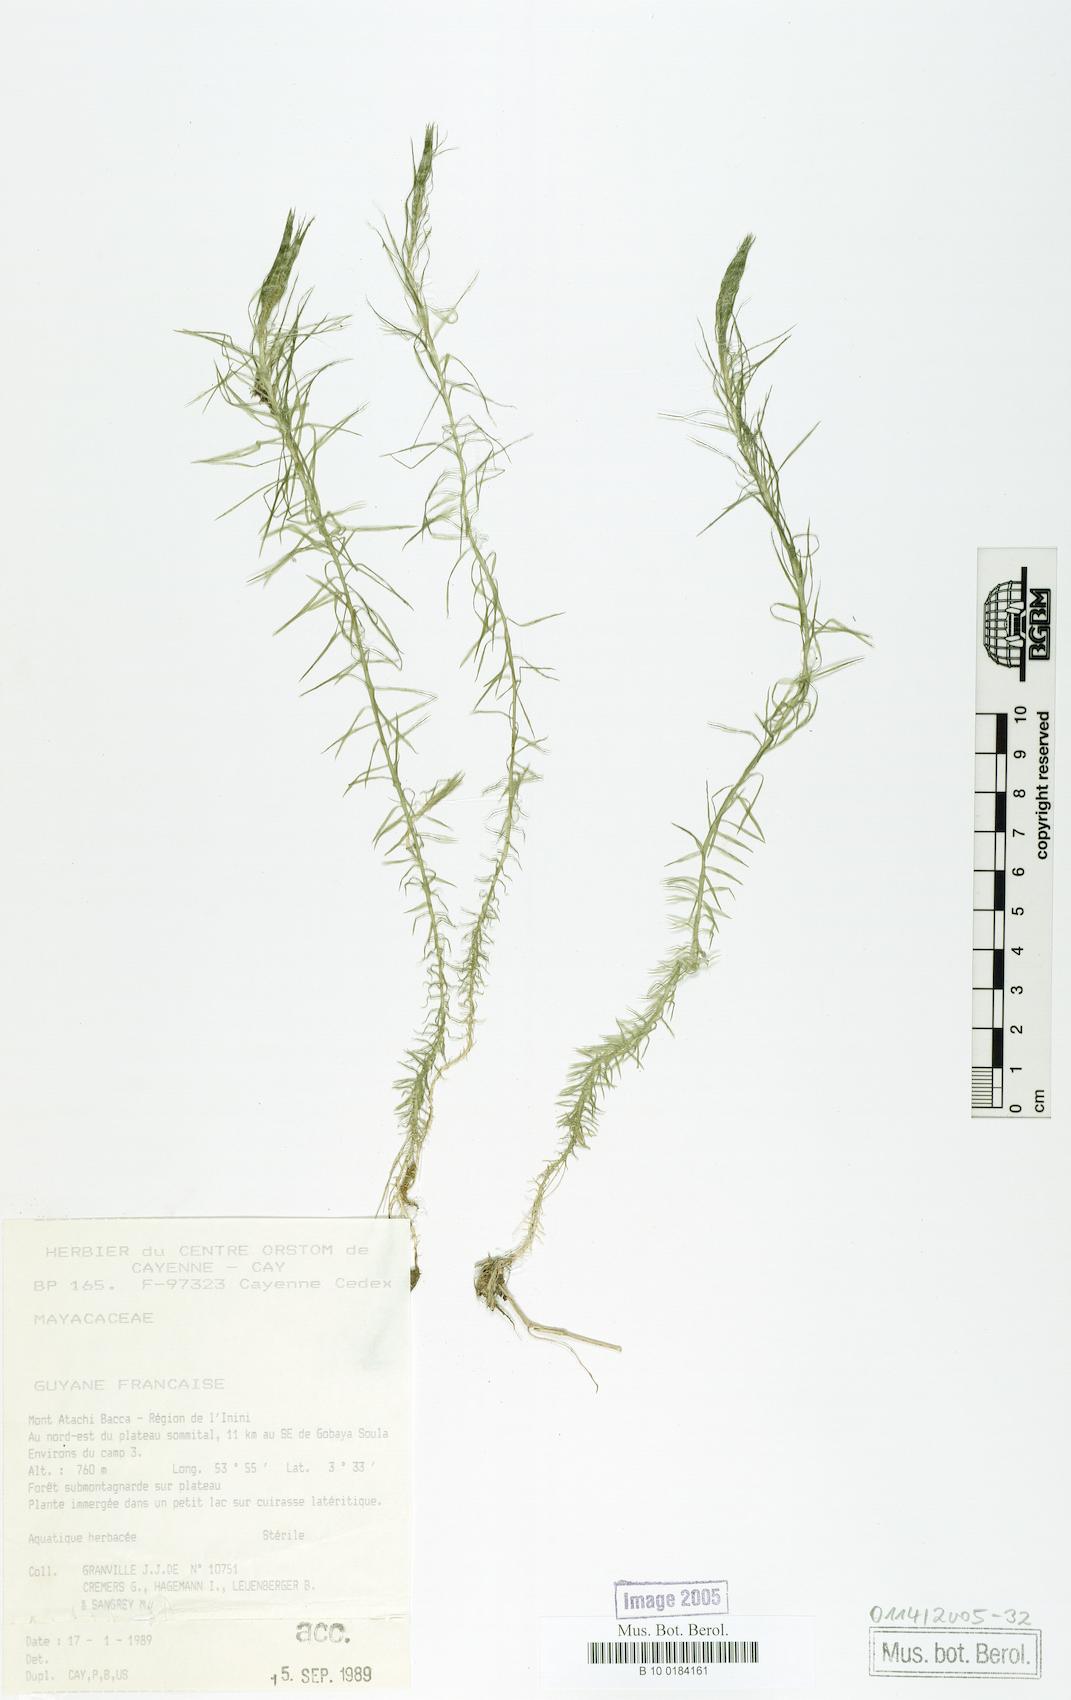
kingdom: Plantae
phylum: Tracheophyta
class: Liliopsida
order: Poales
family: Mayacaceae
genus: Mayaca
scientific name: Mayaca
